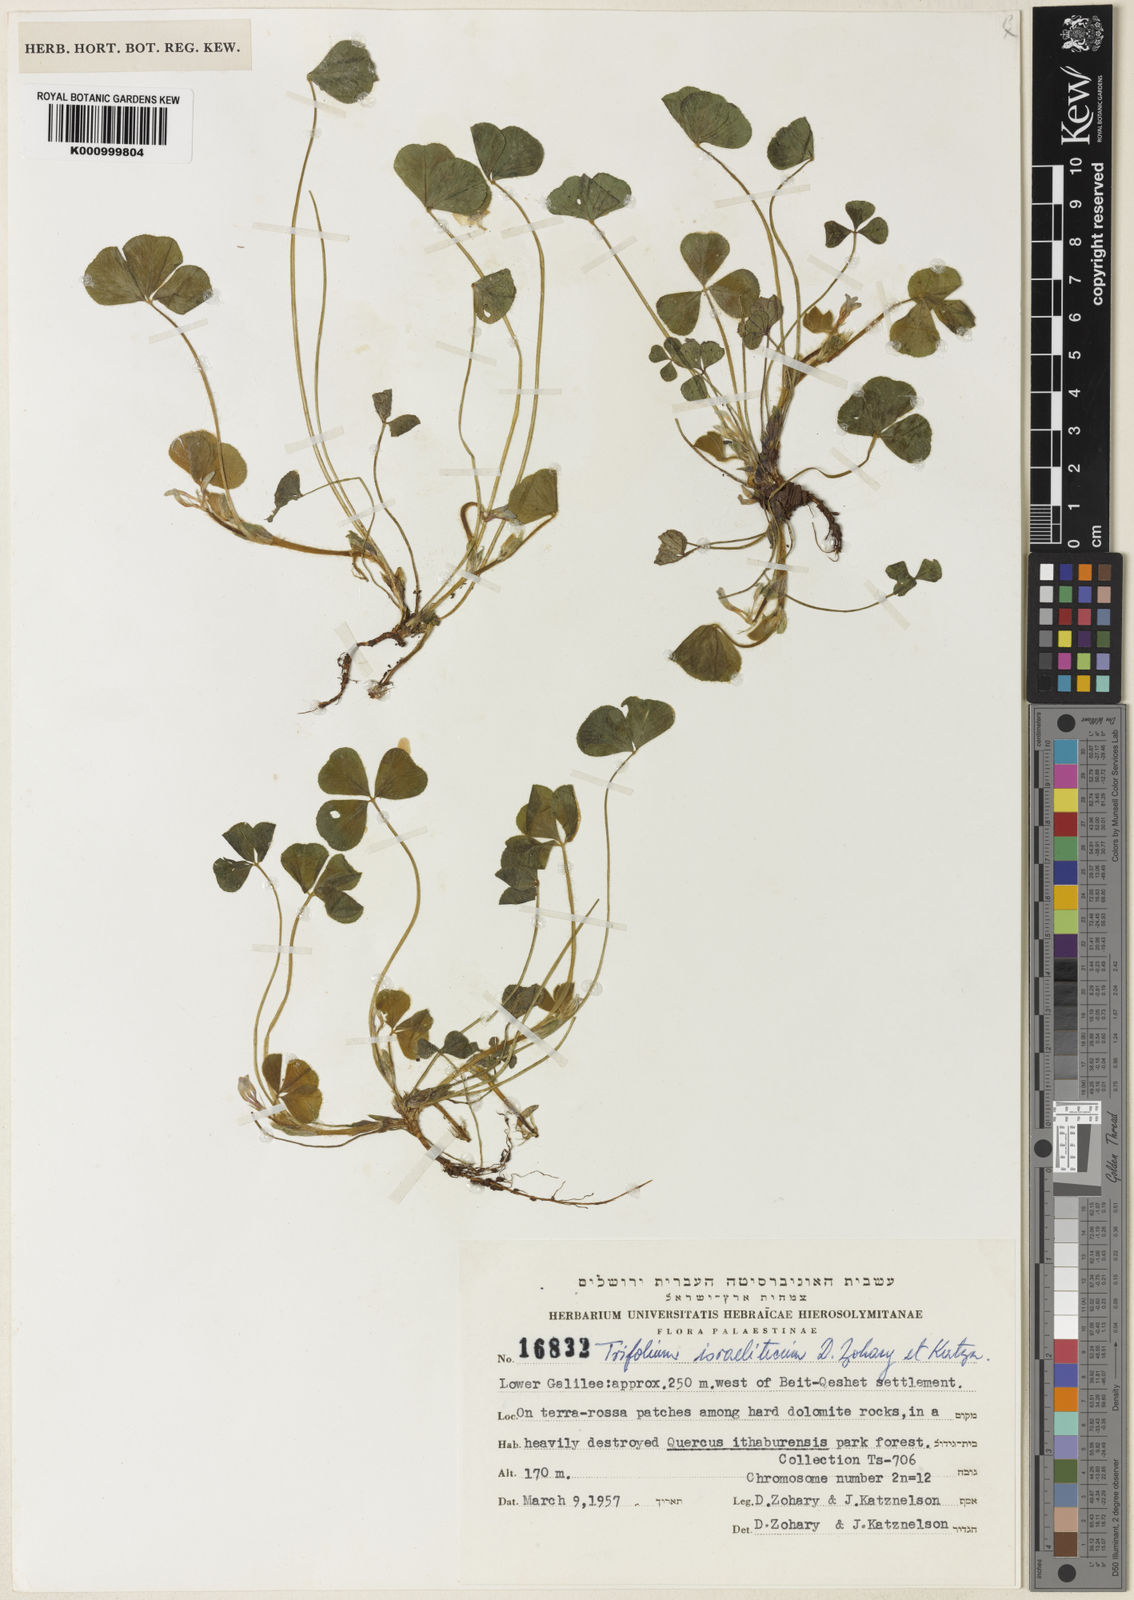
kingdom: Plantae
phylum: Tracheophyta
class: Magnoliopsida
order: Fabales
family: Fabaceae
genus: Trifolium
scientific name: Trifolium israeliticum
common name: Israel clover
